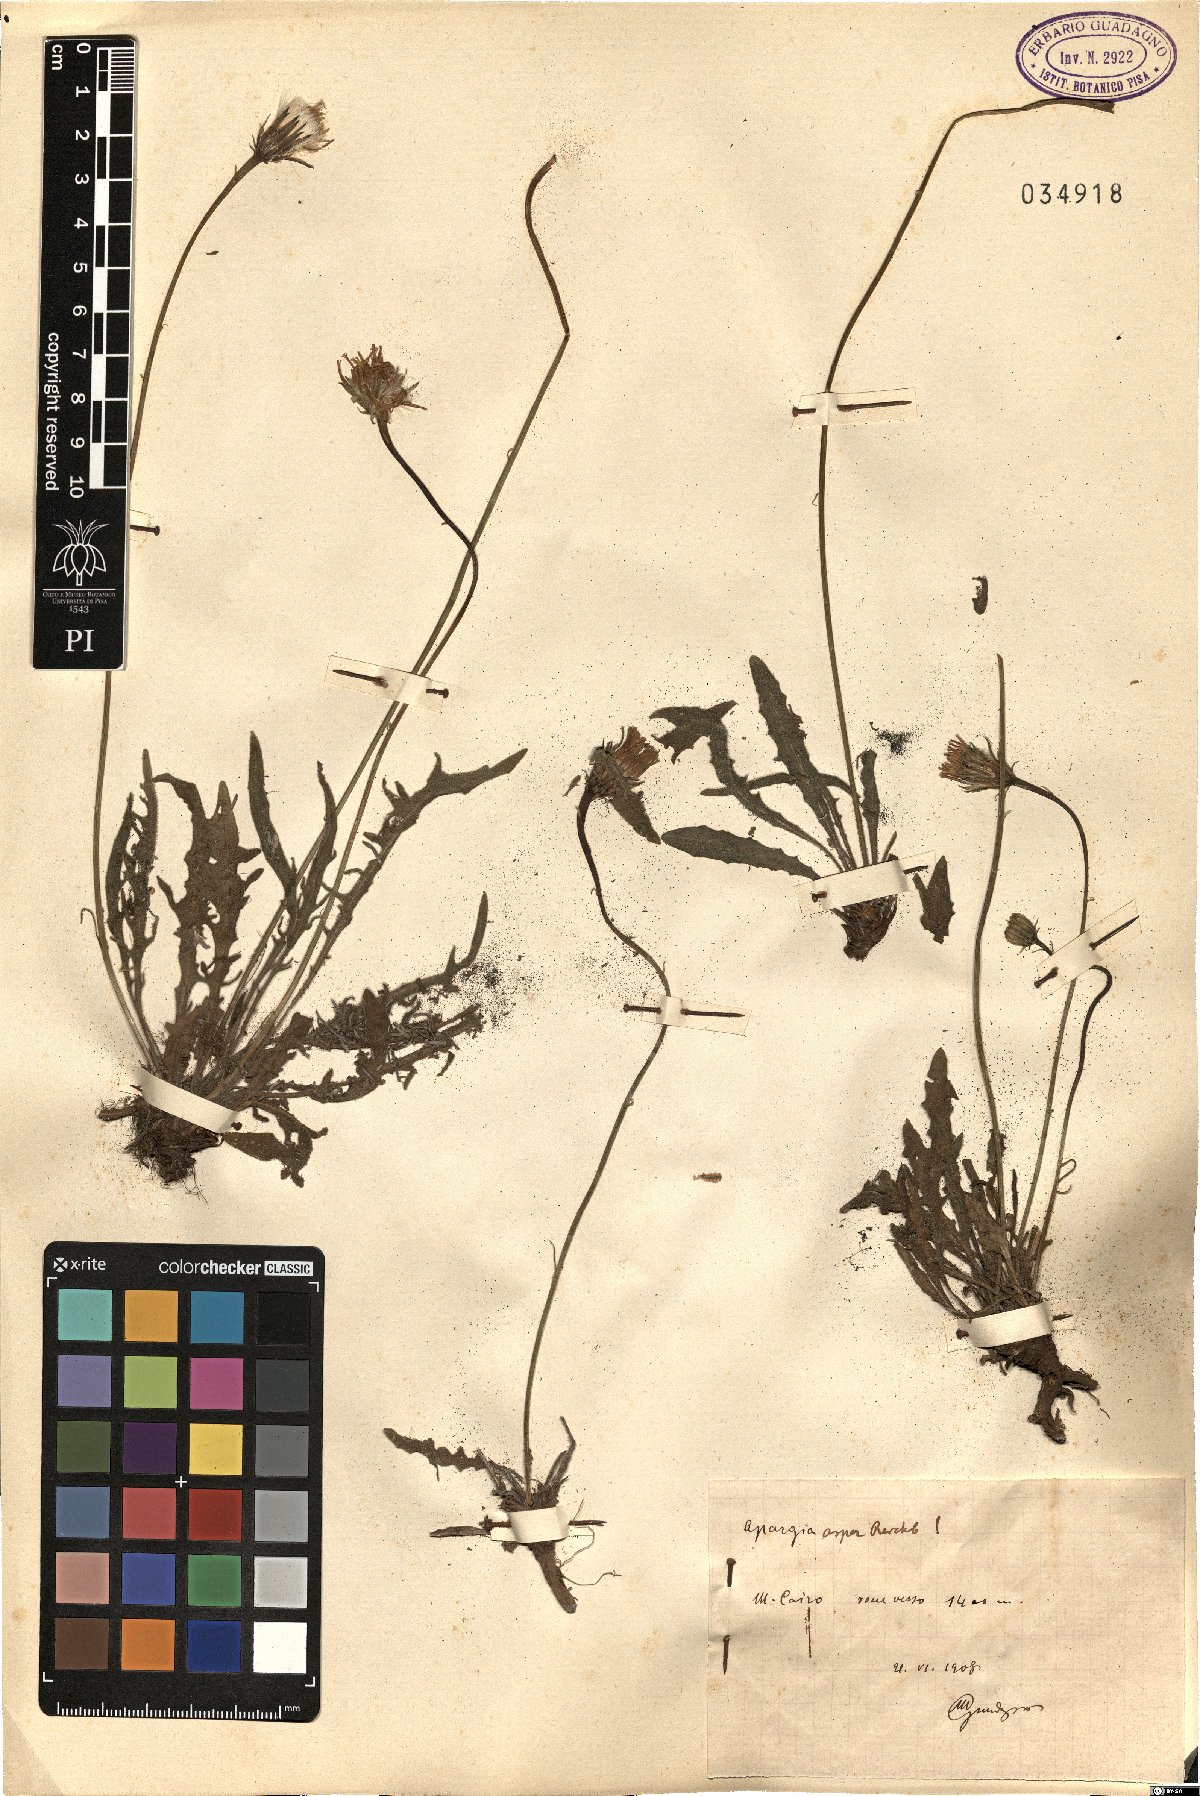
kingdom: Plantae
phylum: Tracheophyta
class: Magnoliopsida
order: Asterales
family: Asteraceae
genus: Leontodon
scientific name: Leontodon biscutellifolius
